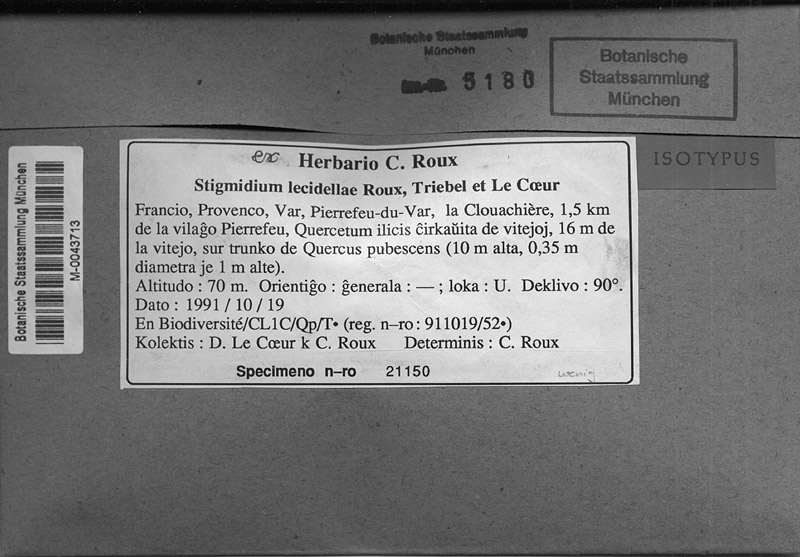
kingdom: Fungi
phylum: Ascomycota
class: Dothideomycetes
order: Mycosphaerellales
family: Mycosphaerellaceae
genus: Stigmidium
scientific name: Stigmidium lecidellae
